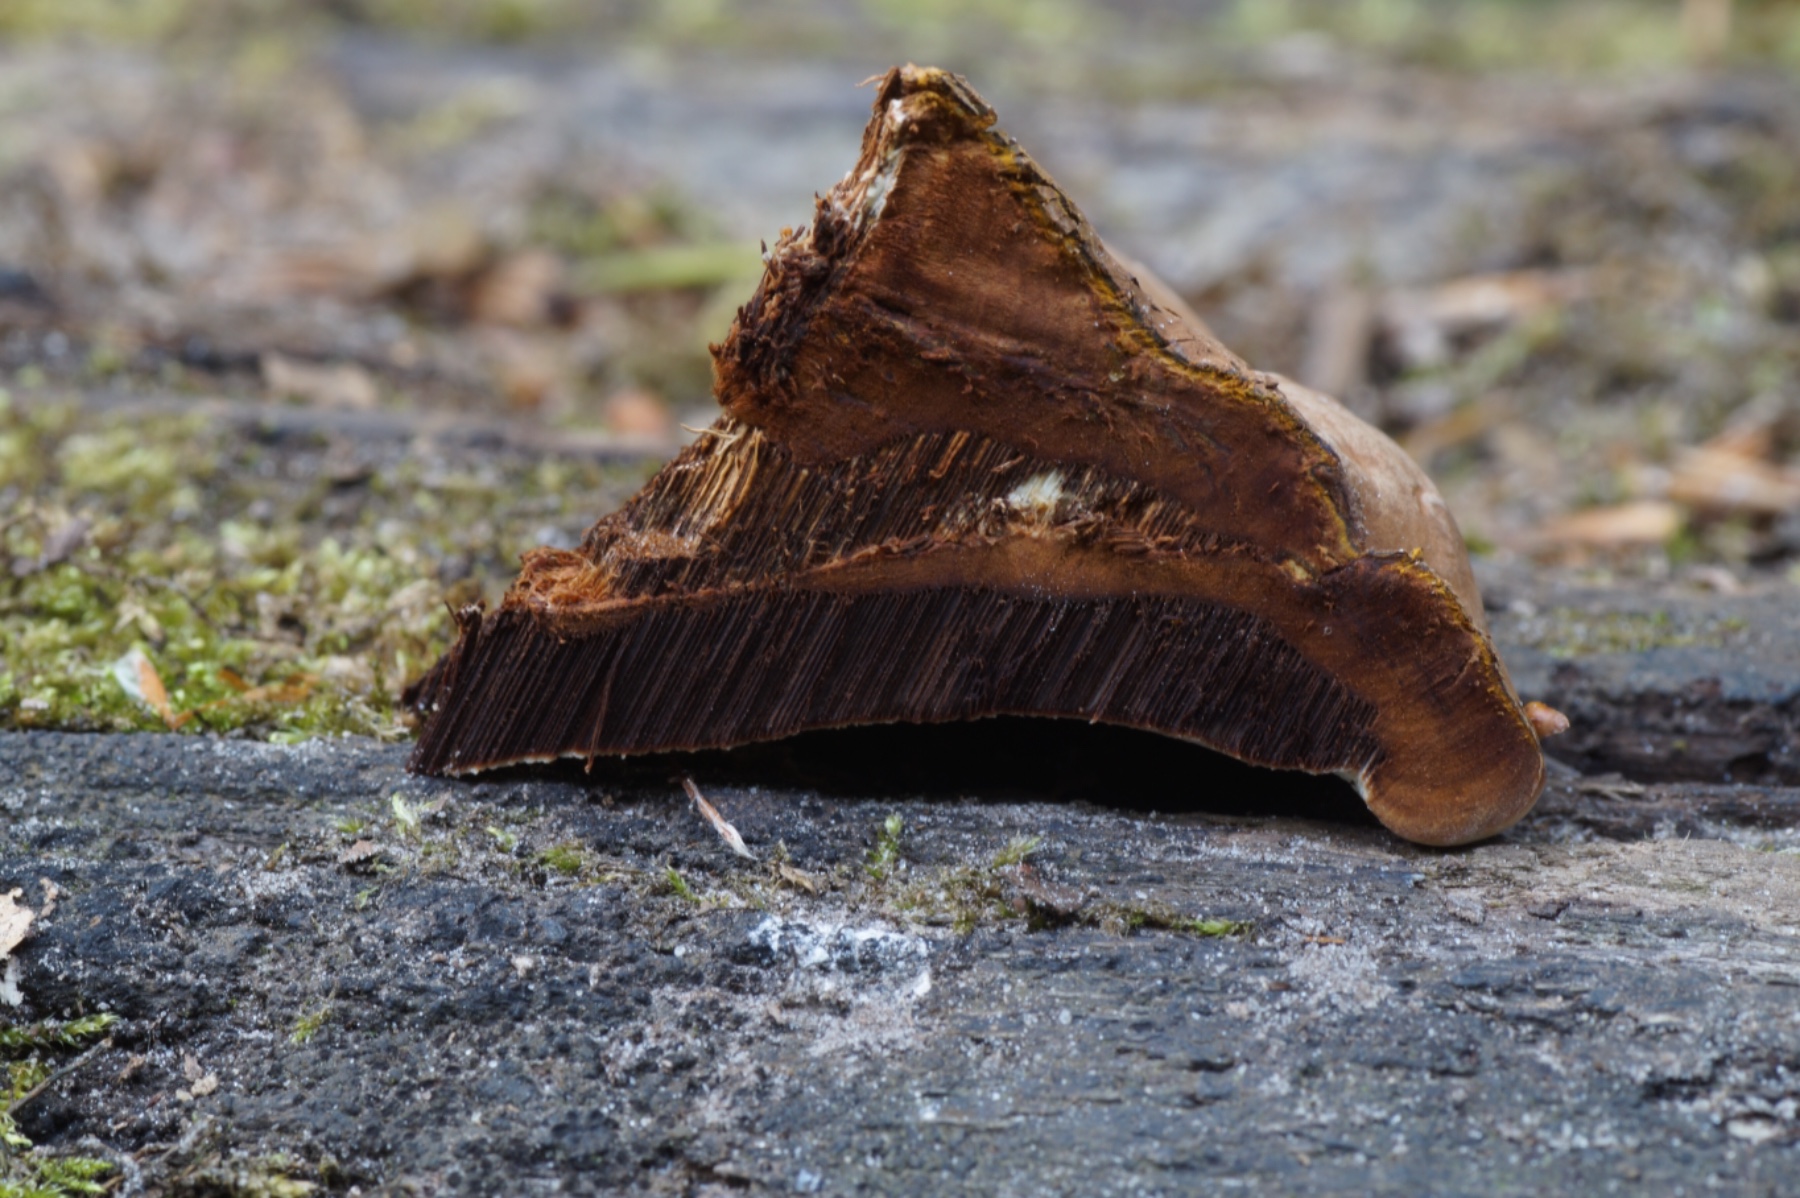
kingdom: Fungi
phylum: Basidiomycota
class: Agaricomycetes
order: Polyporales
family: Polyporaceae
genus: Ganoderma
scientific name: Ganoderma applanatum
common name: flad lakporesvamp
